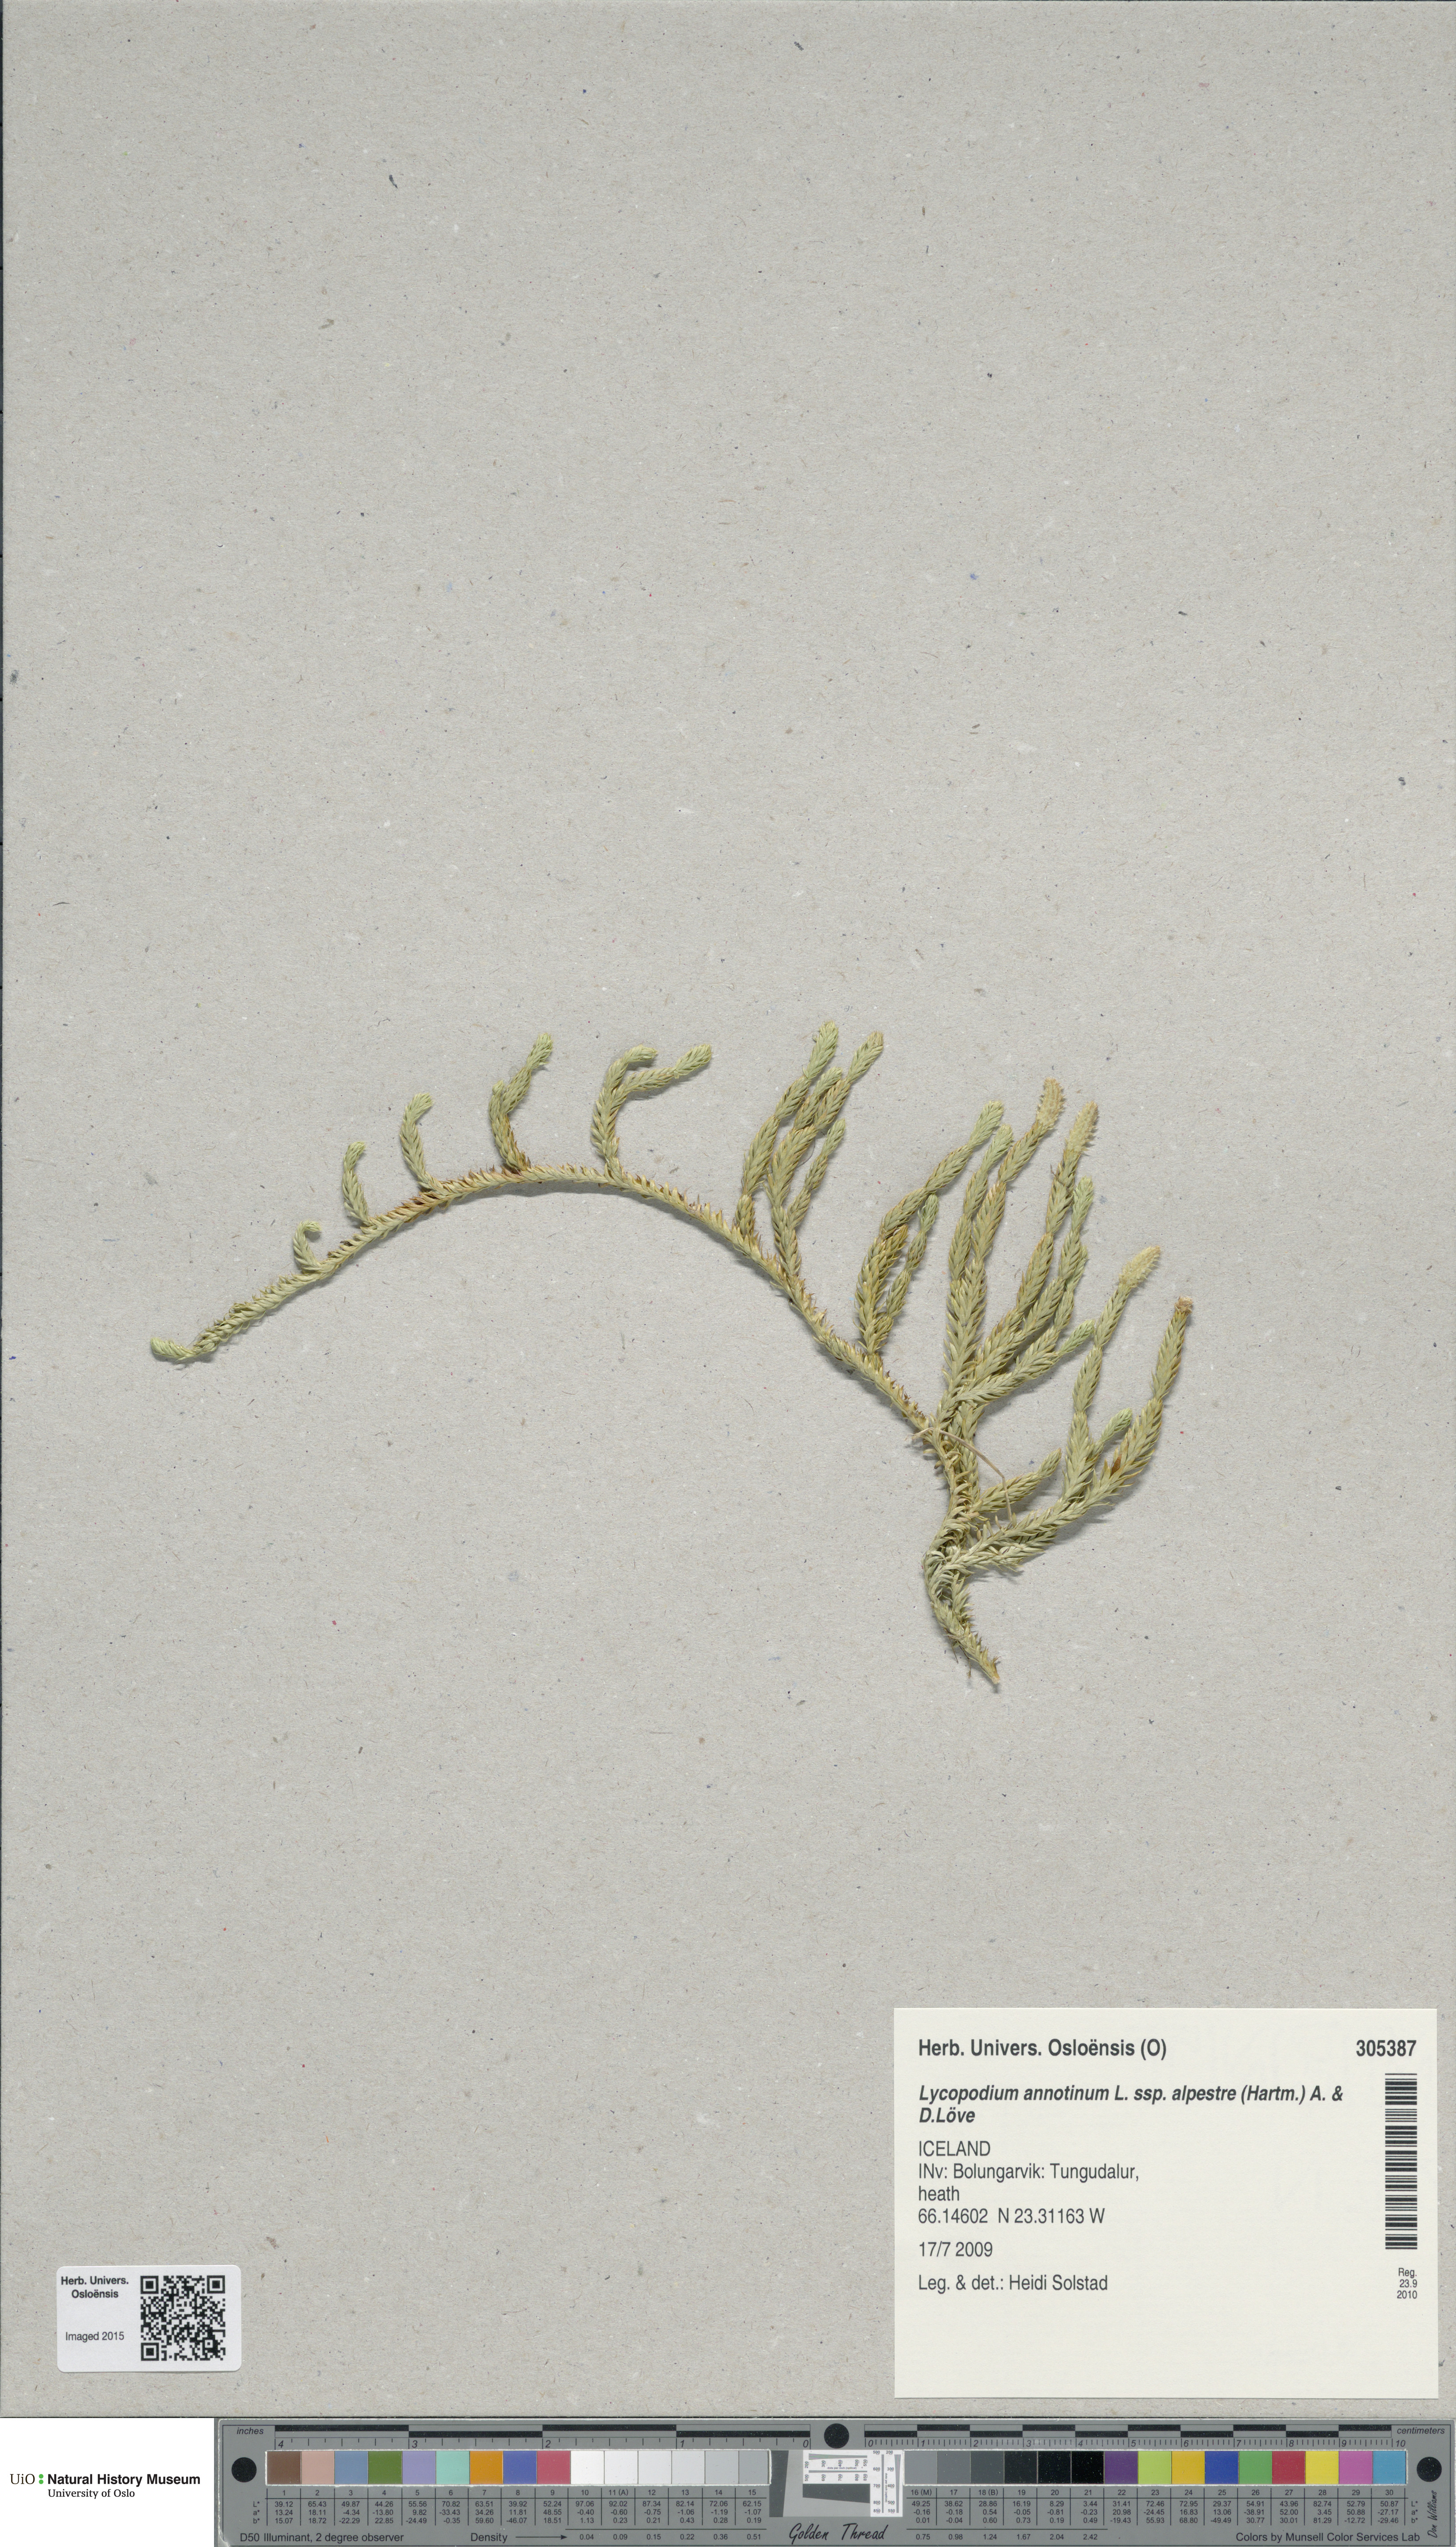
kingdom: Plantae
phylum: Tracheophyta
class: Lycopodiopsida
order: Lycopodiales
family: Lycopodiaceae
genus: Spinulum
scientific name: Spinulum annotinum
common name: Interrupted club-moss
